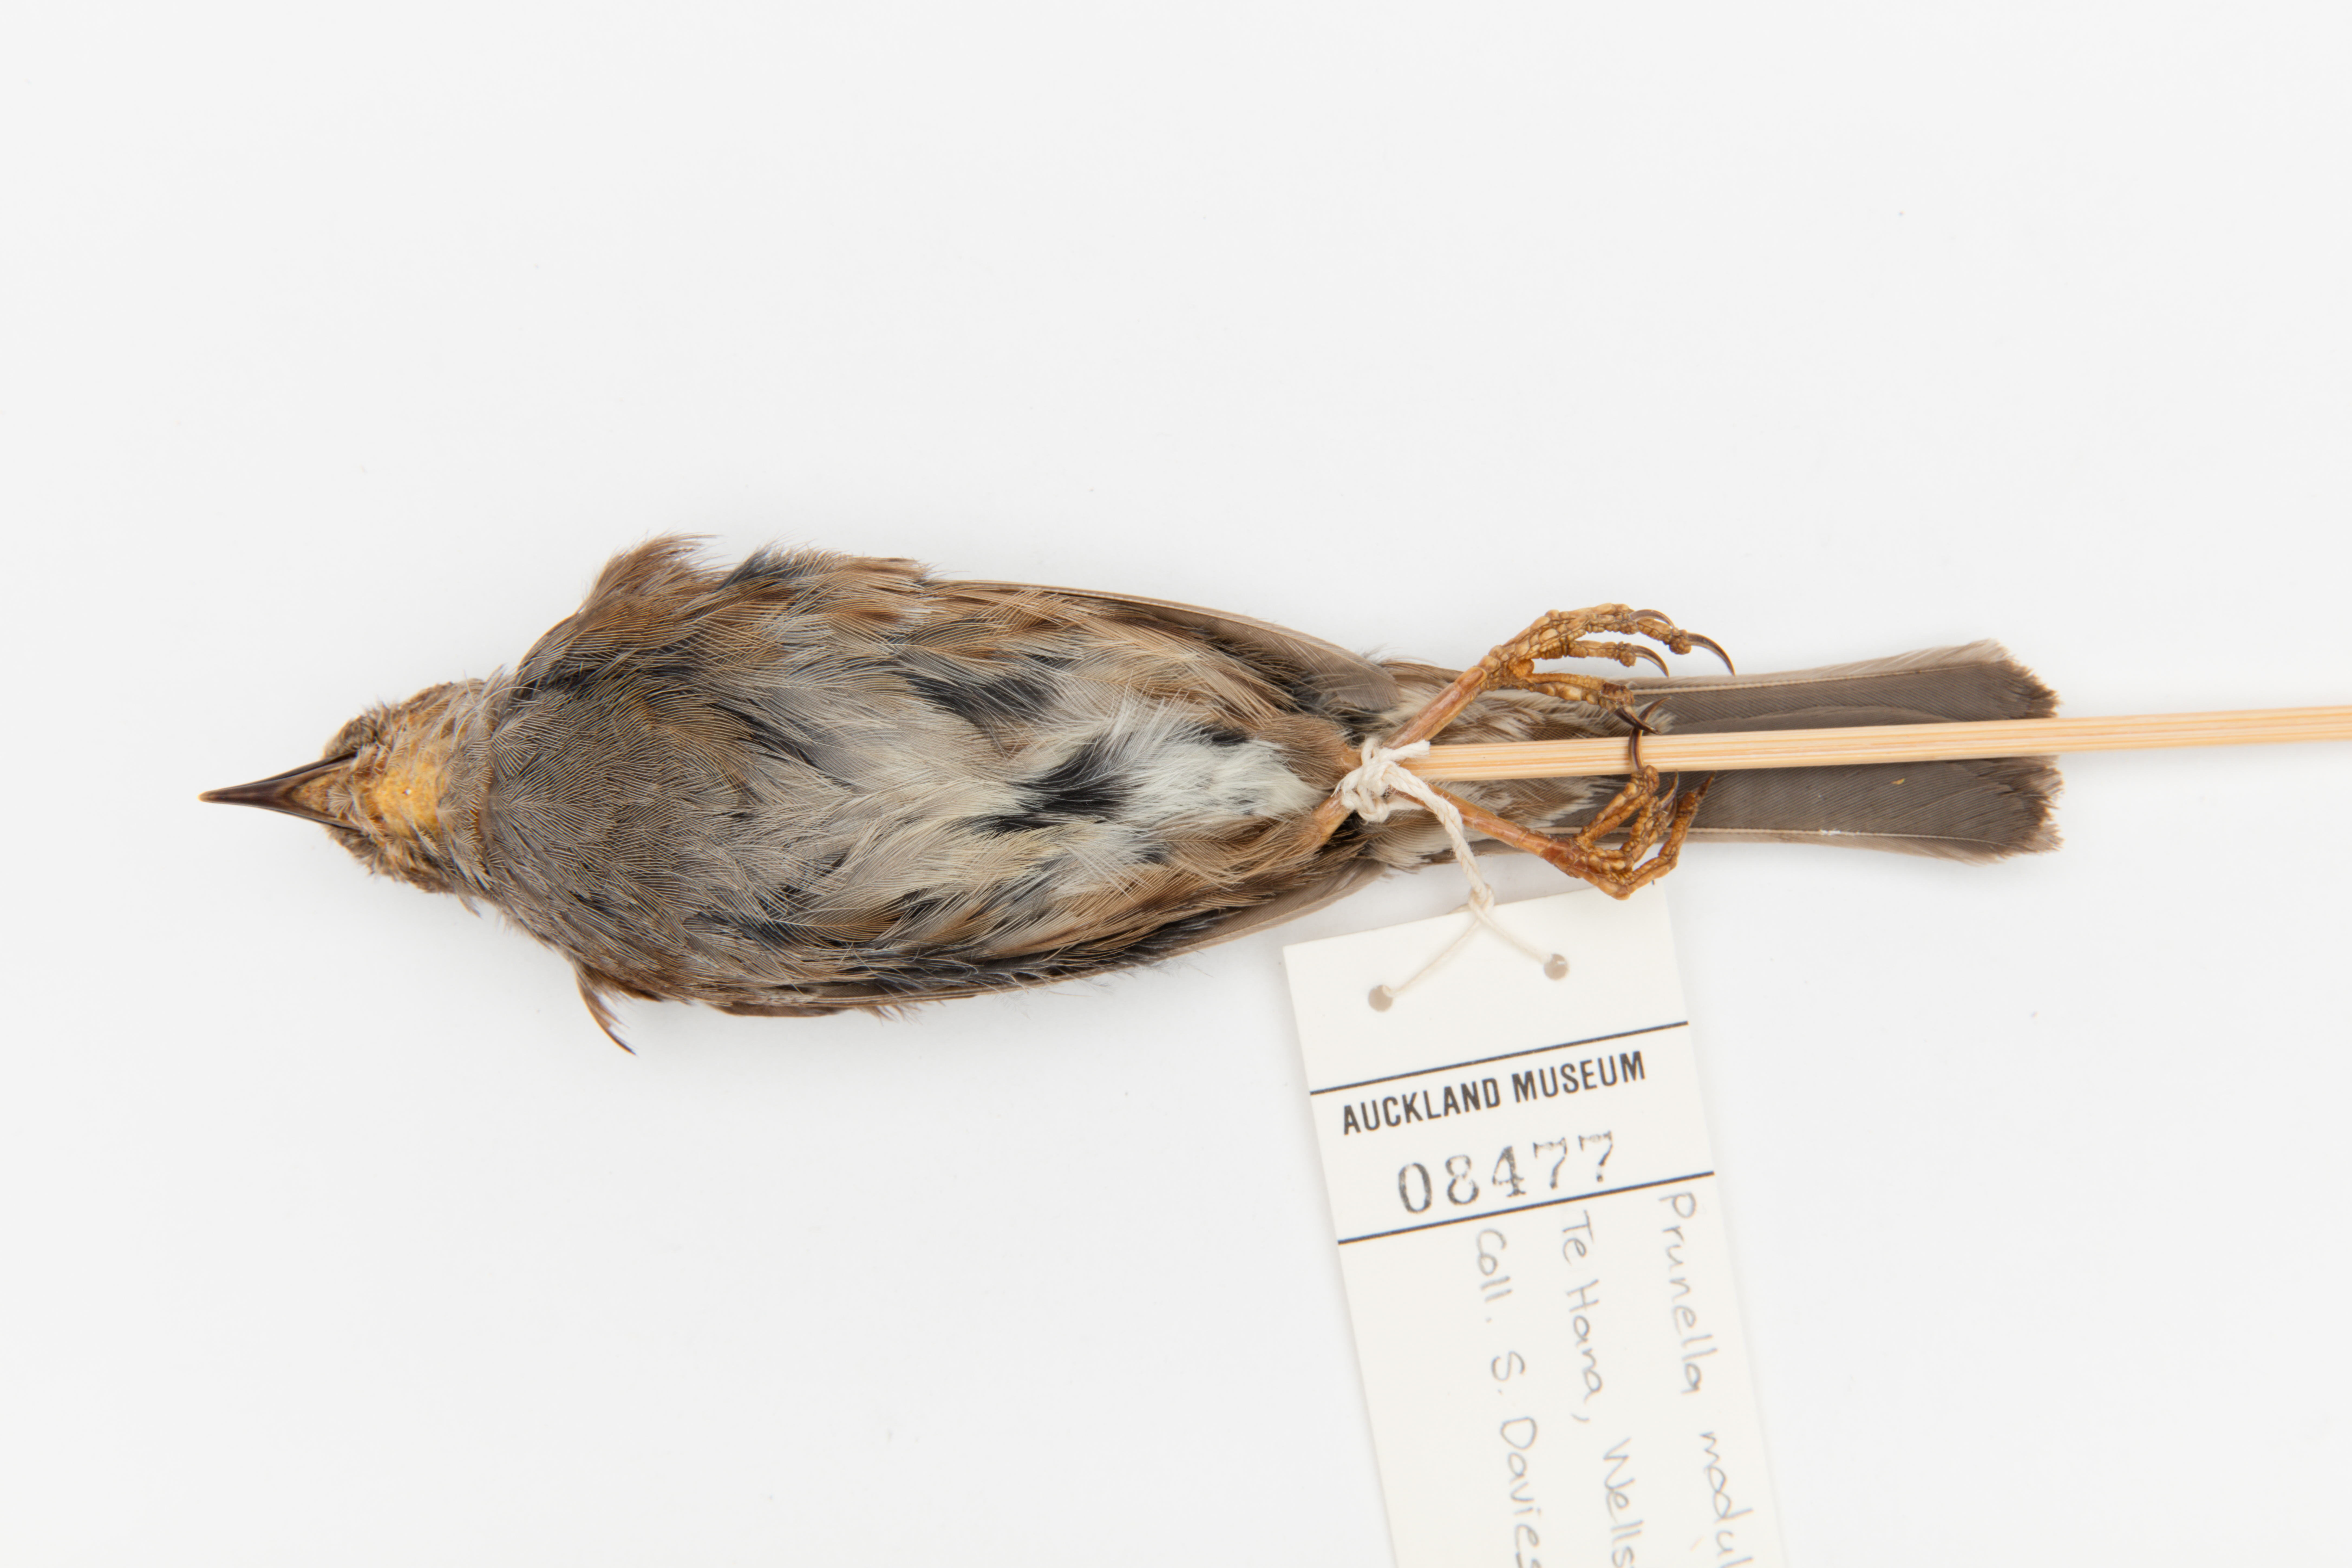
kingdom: Animalia
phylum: Chordata
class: Aves
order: Passeriformes
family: Prunellidae
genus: Prunella
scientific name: Prunella modularis
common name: Dunnock
